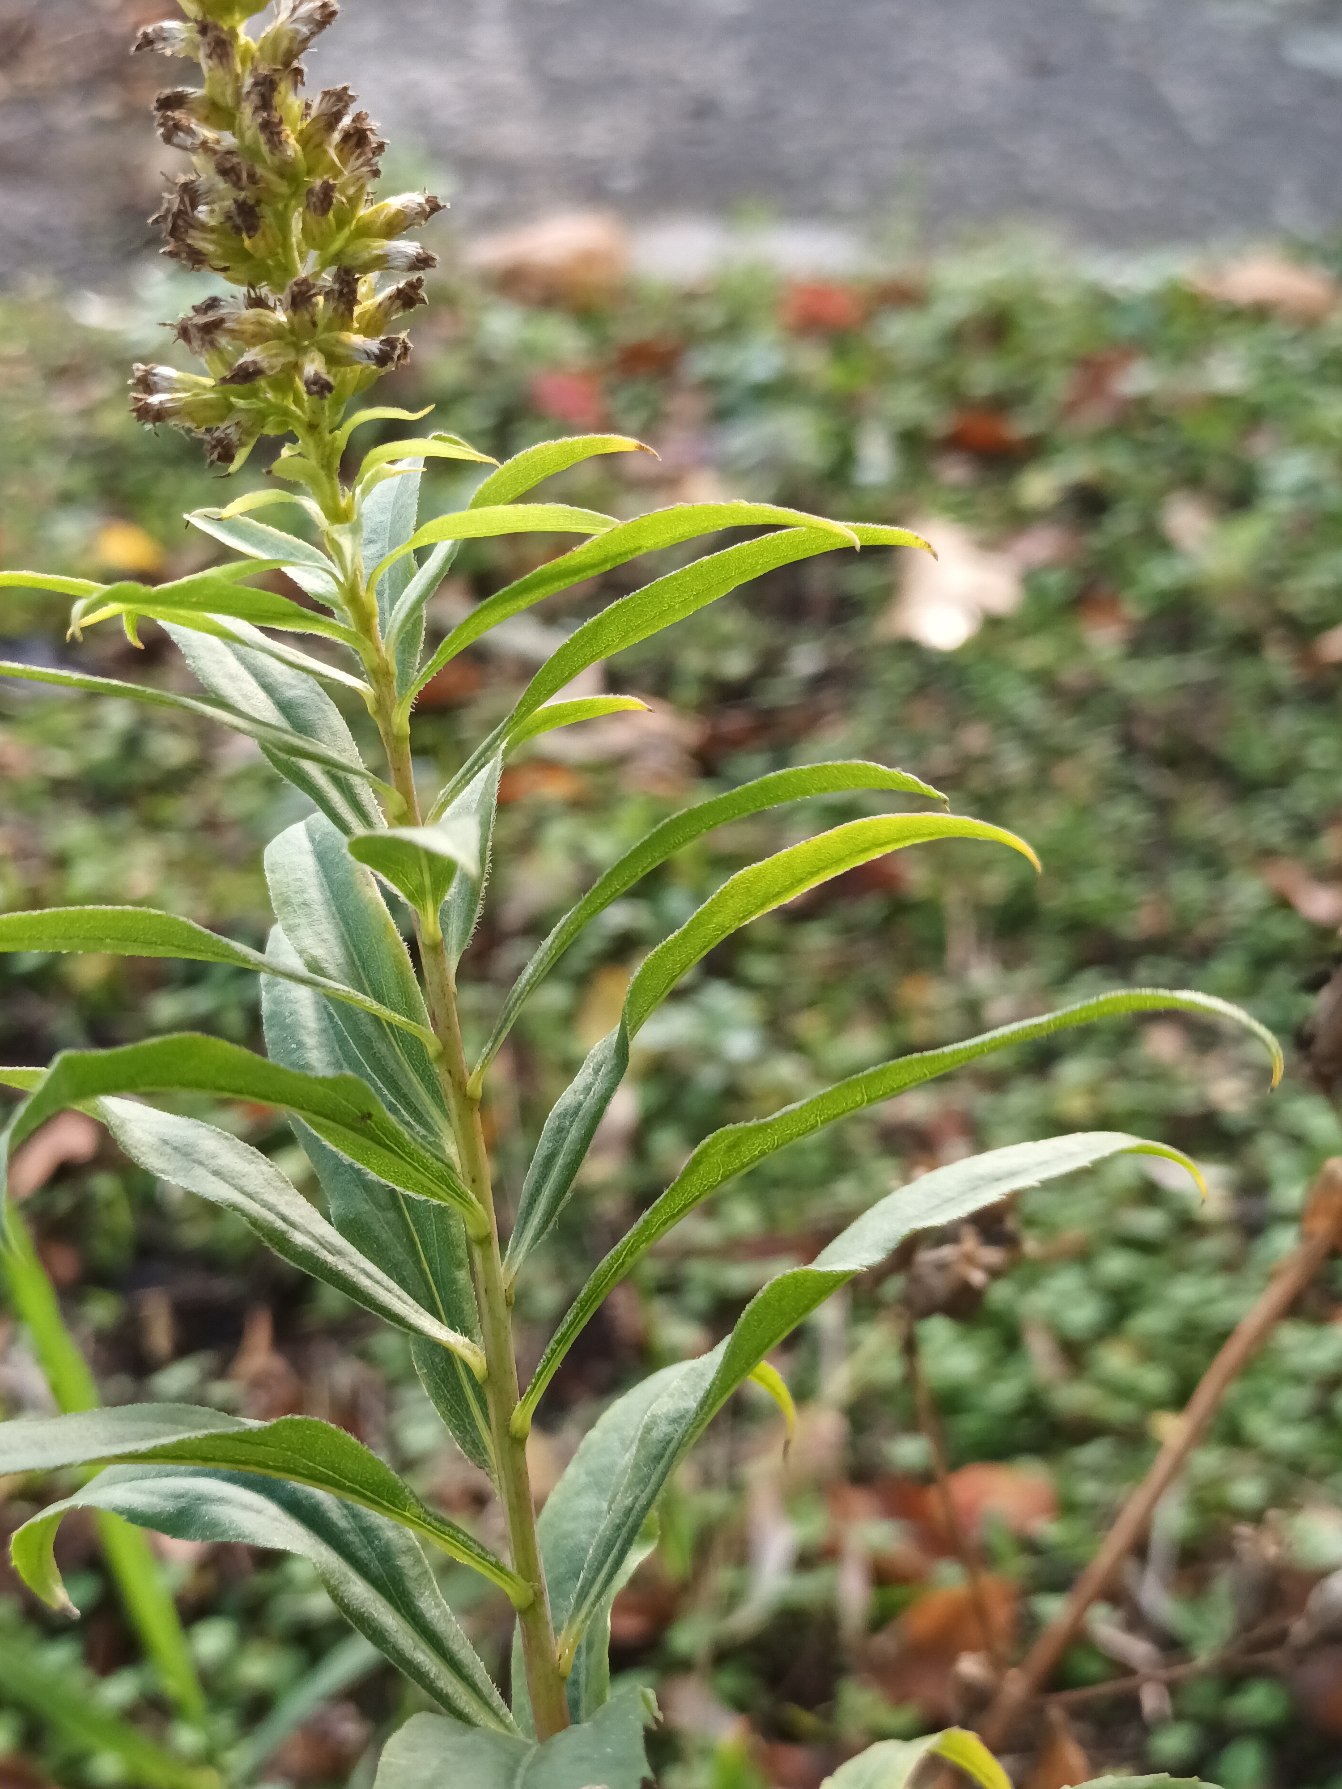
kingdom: Plantae
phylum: Tracheophyta
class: Magnoliopsida
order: Asterales
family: Asteraceae
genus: Solidago
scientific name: Solidago gigantea
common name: Sildig gyldenris
